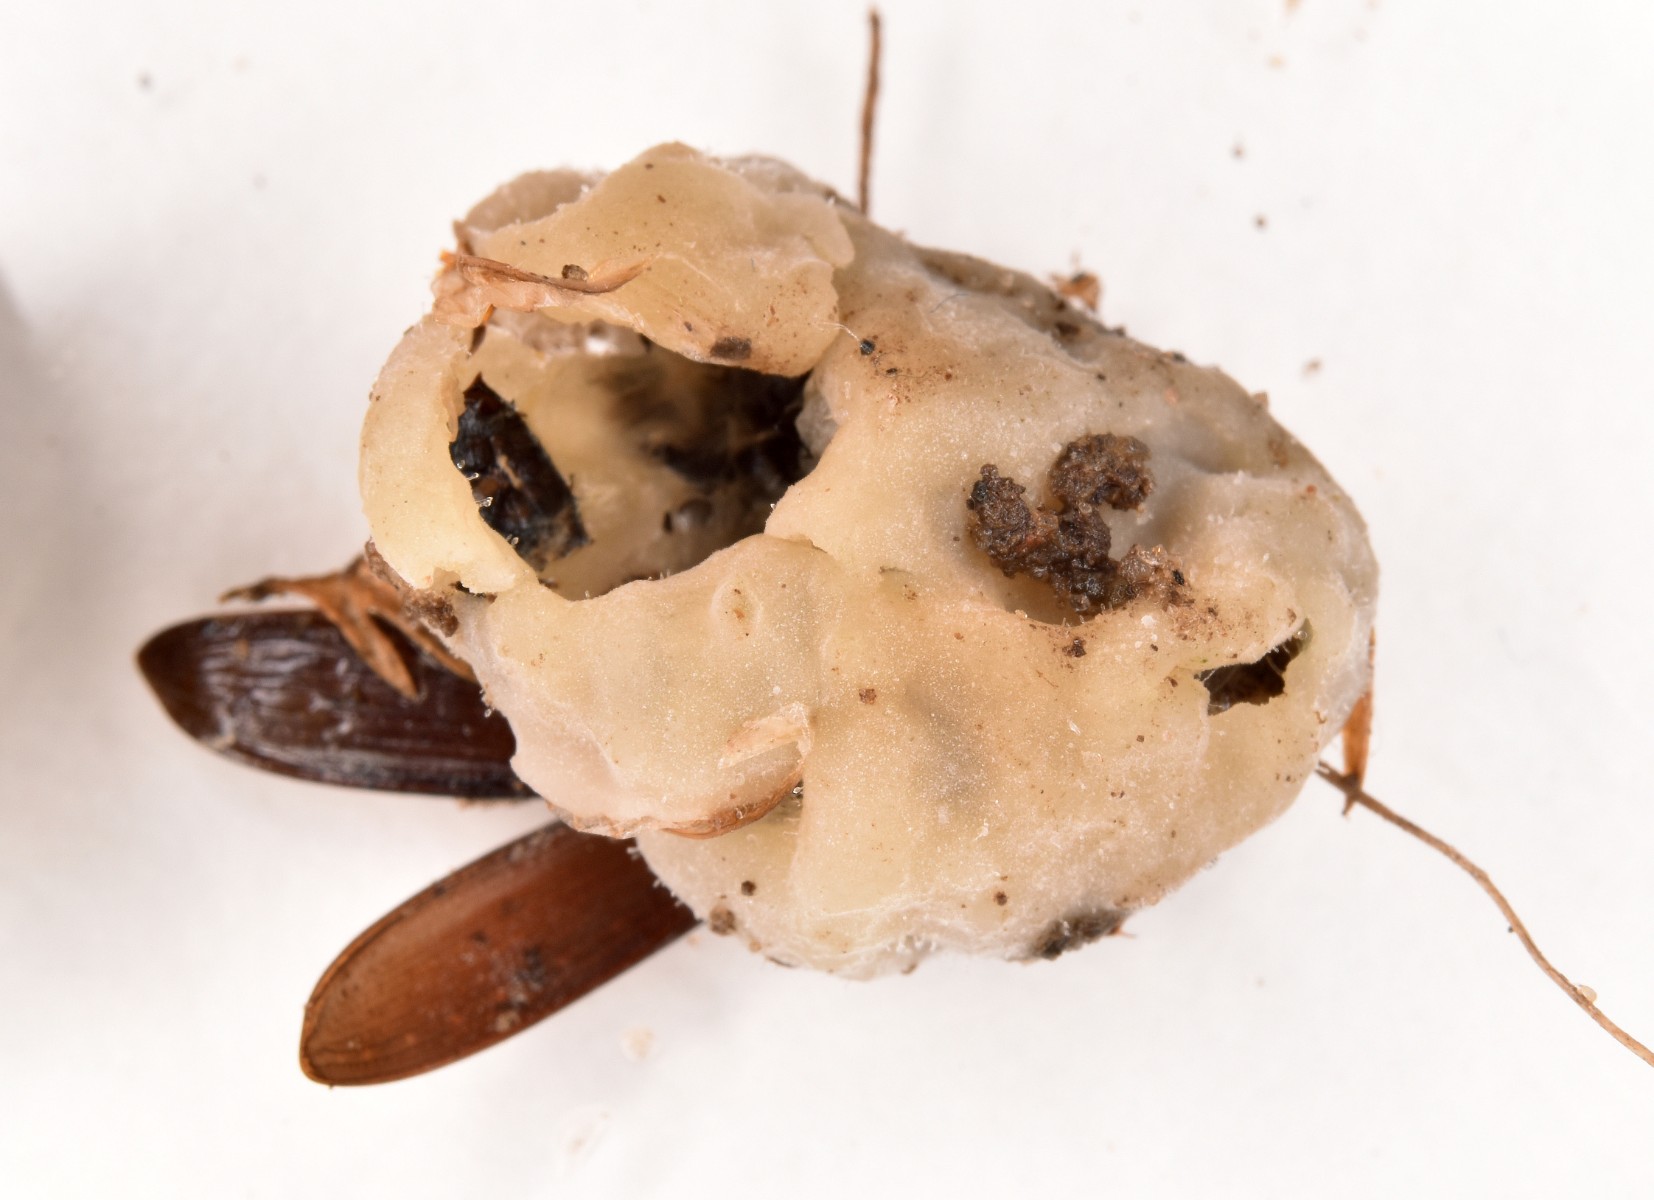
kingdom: Fungi
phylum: Ascomycota
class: Sordariomycetes
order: Hypocreales
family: Cordycipitaceae
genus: Beauveria
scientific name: Beauveria bassiana
